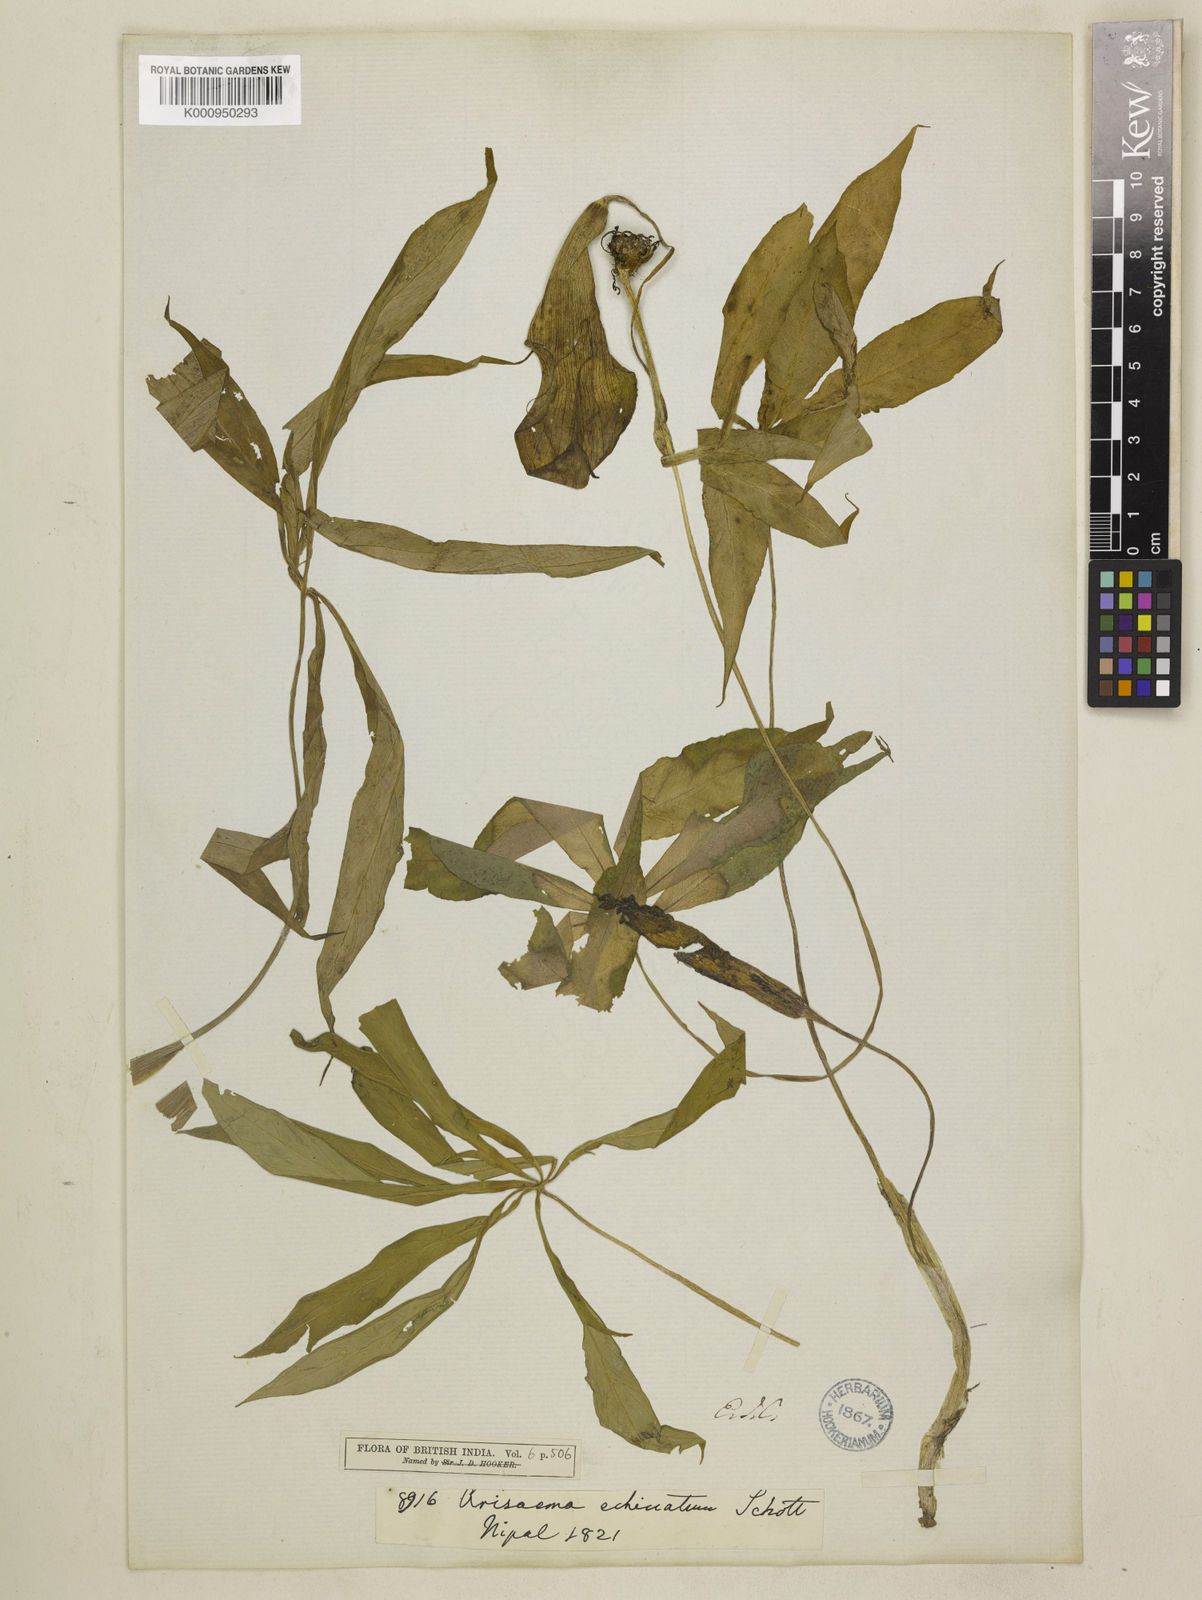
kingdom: Plantae
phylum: Tracheophyta
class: Liliopsida
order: Alismatales
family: Araceae
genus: Arisaema
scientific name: Arisaema echinatum
